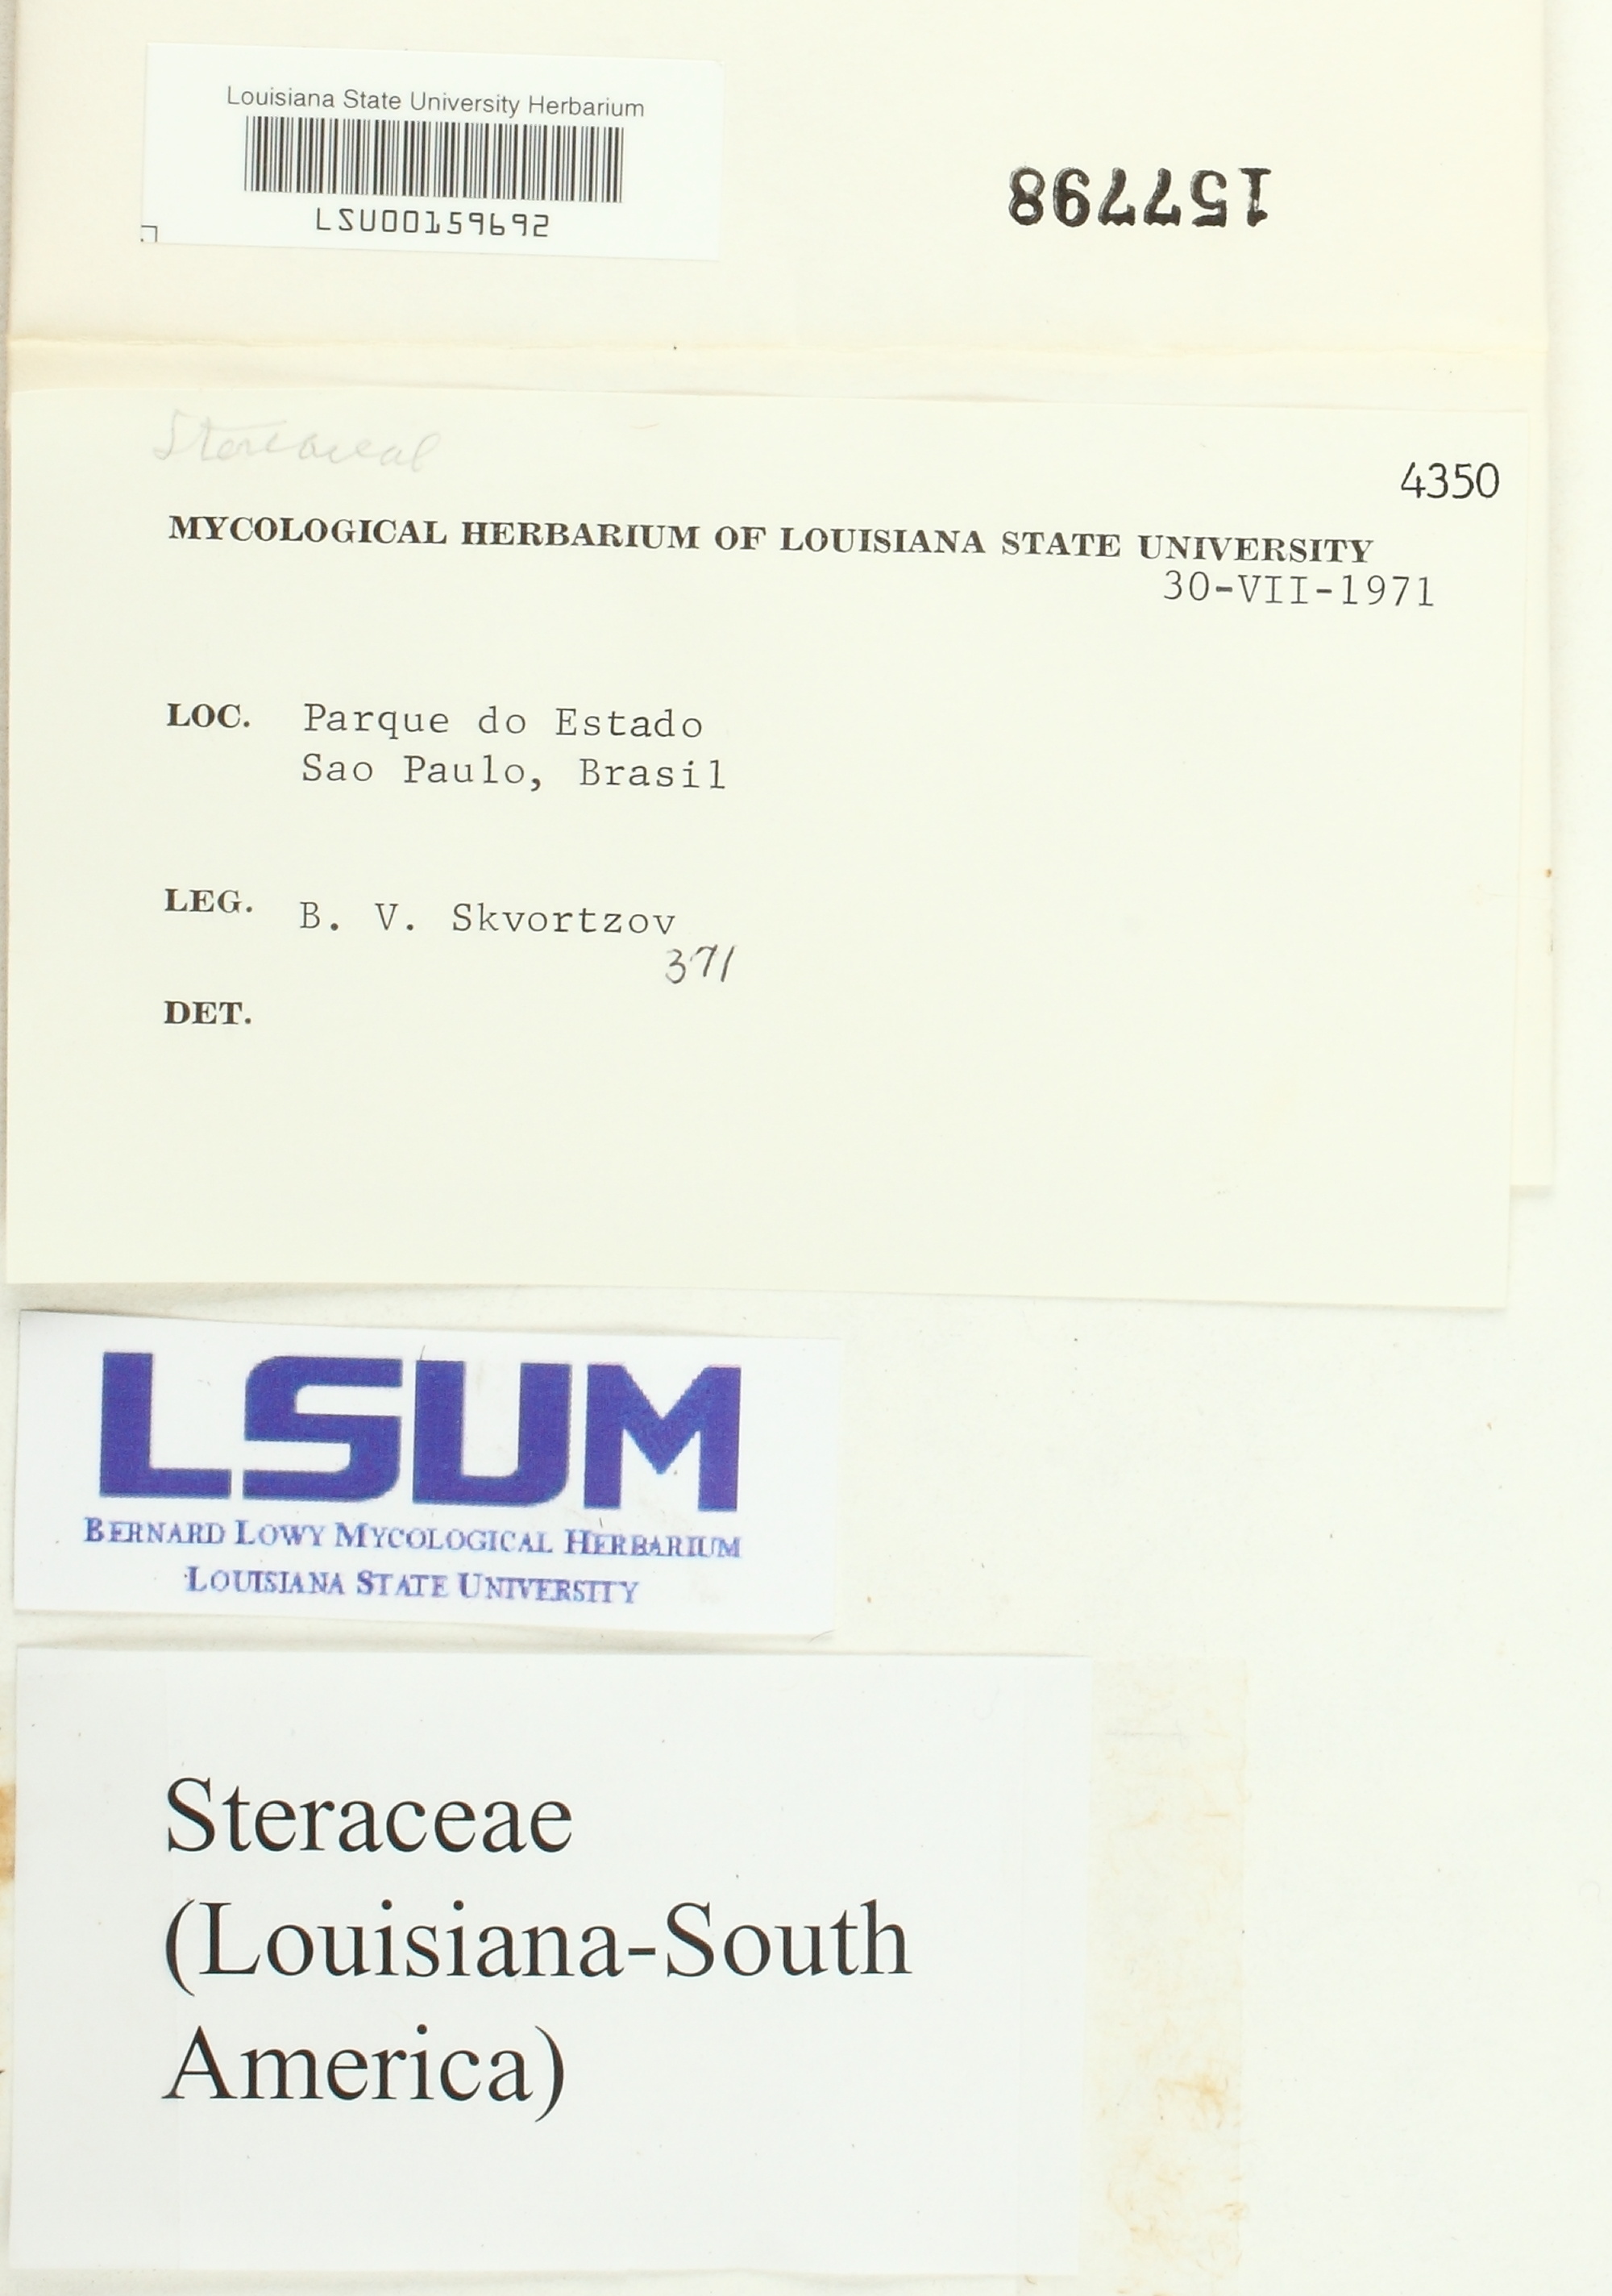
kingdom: Fungi
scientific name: Fungi
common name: Fungi
